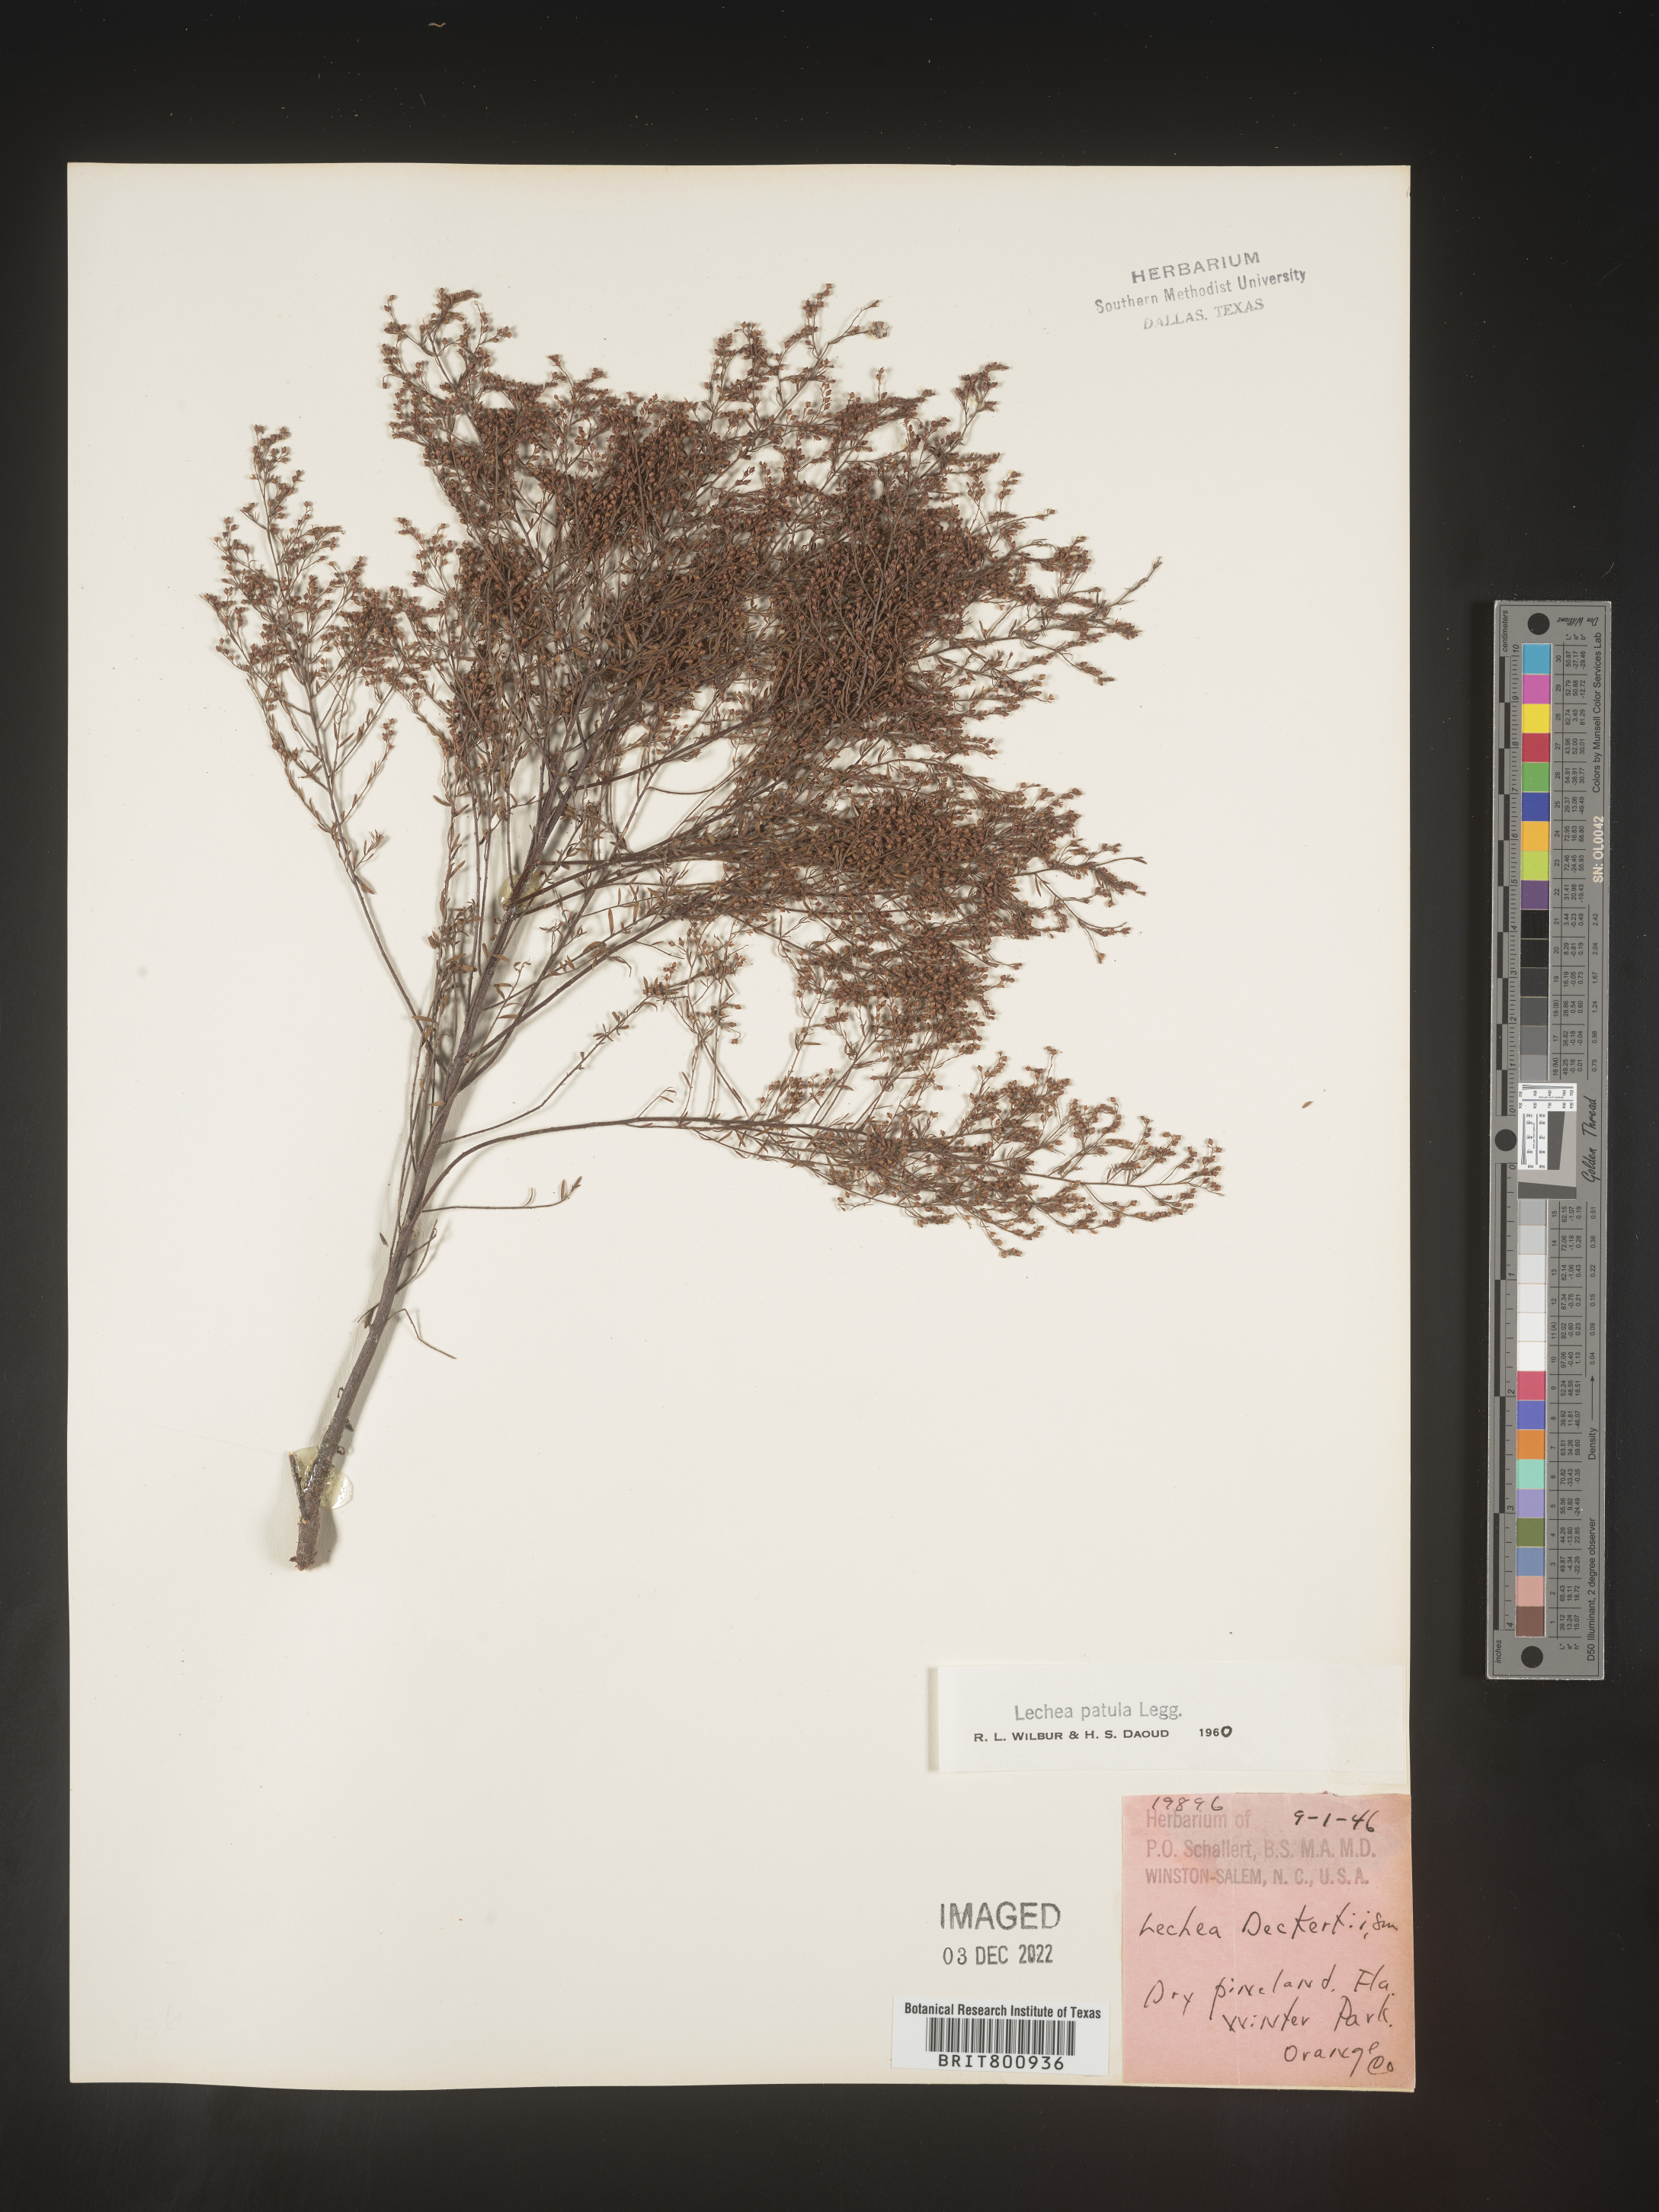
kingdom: Plantae
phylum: Tracheophyta
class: Magnoliopsida
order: Malvales
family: Cistaceae
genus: Lechea
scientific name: Lechea sessiliflora
